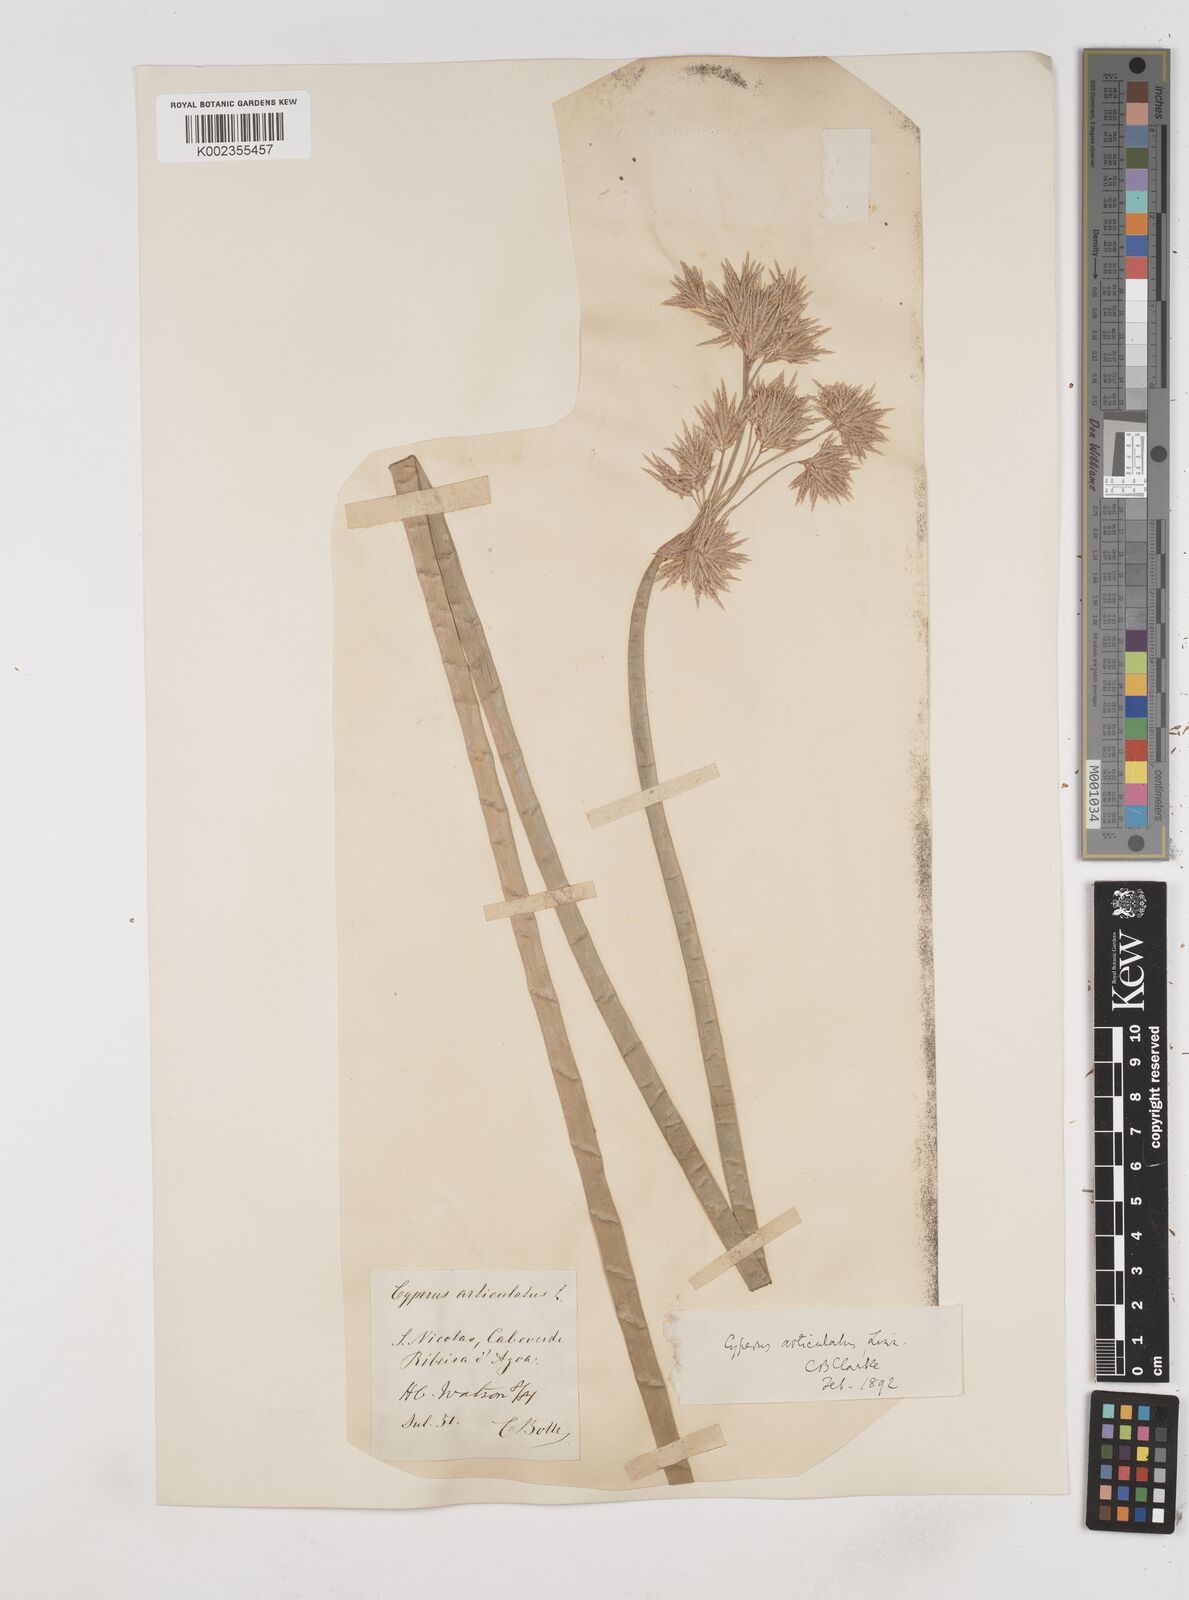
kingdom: Plantae
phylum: Tracheophyta
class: Liliopsida
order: Poales
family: Cyperaceae
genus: Cyperus
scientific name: Cyperus articulatus
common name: Jointed flatsedge
